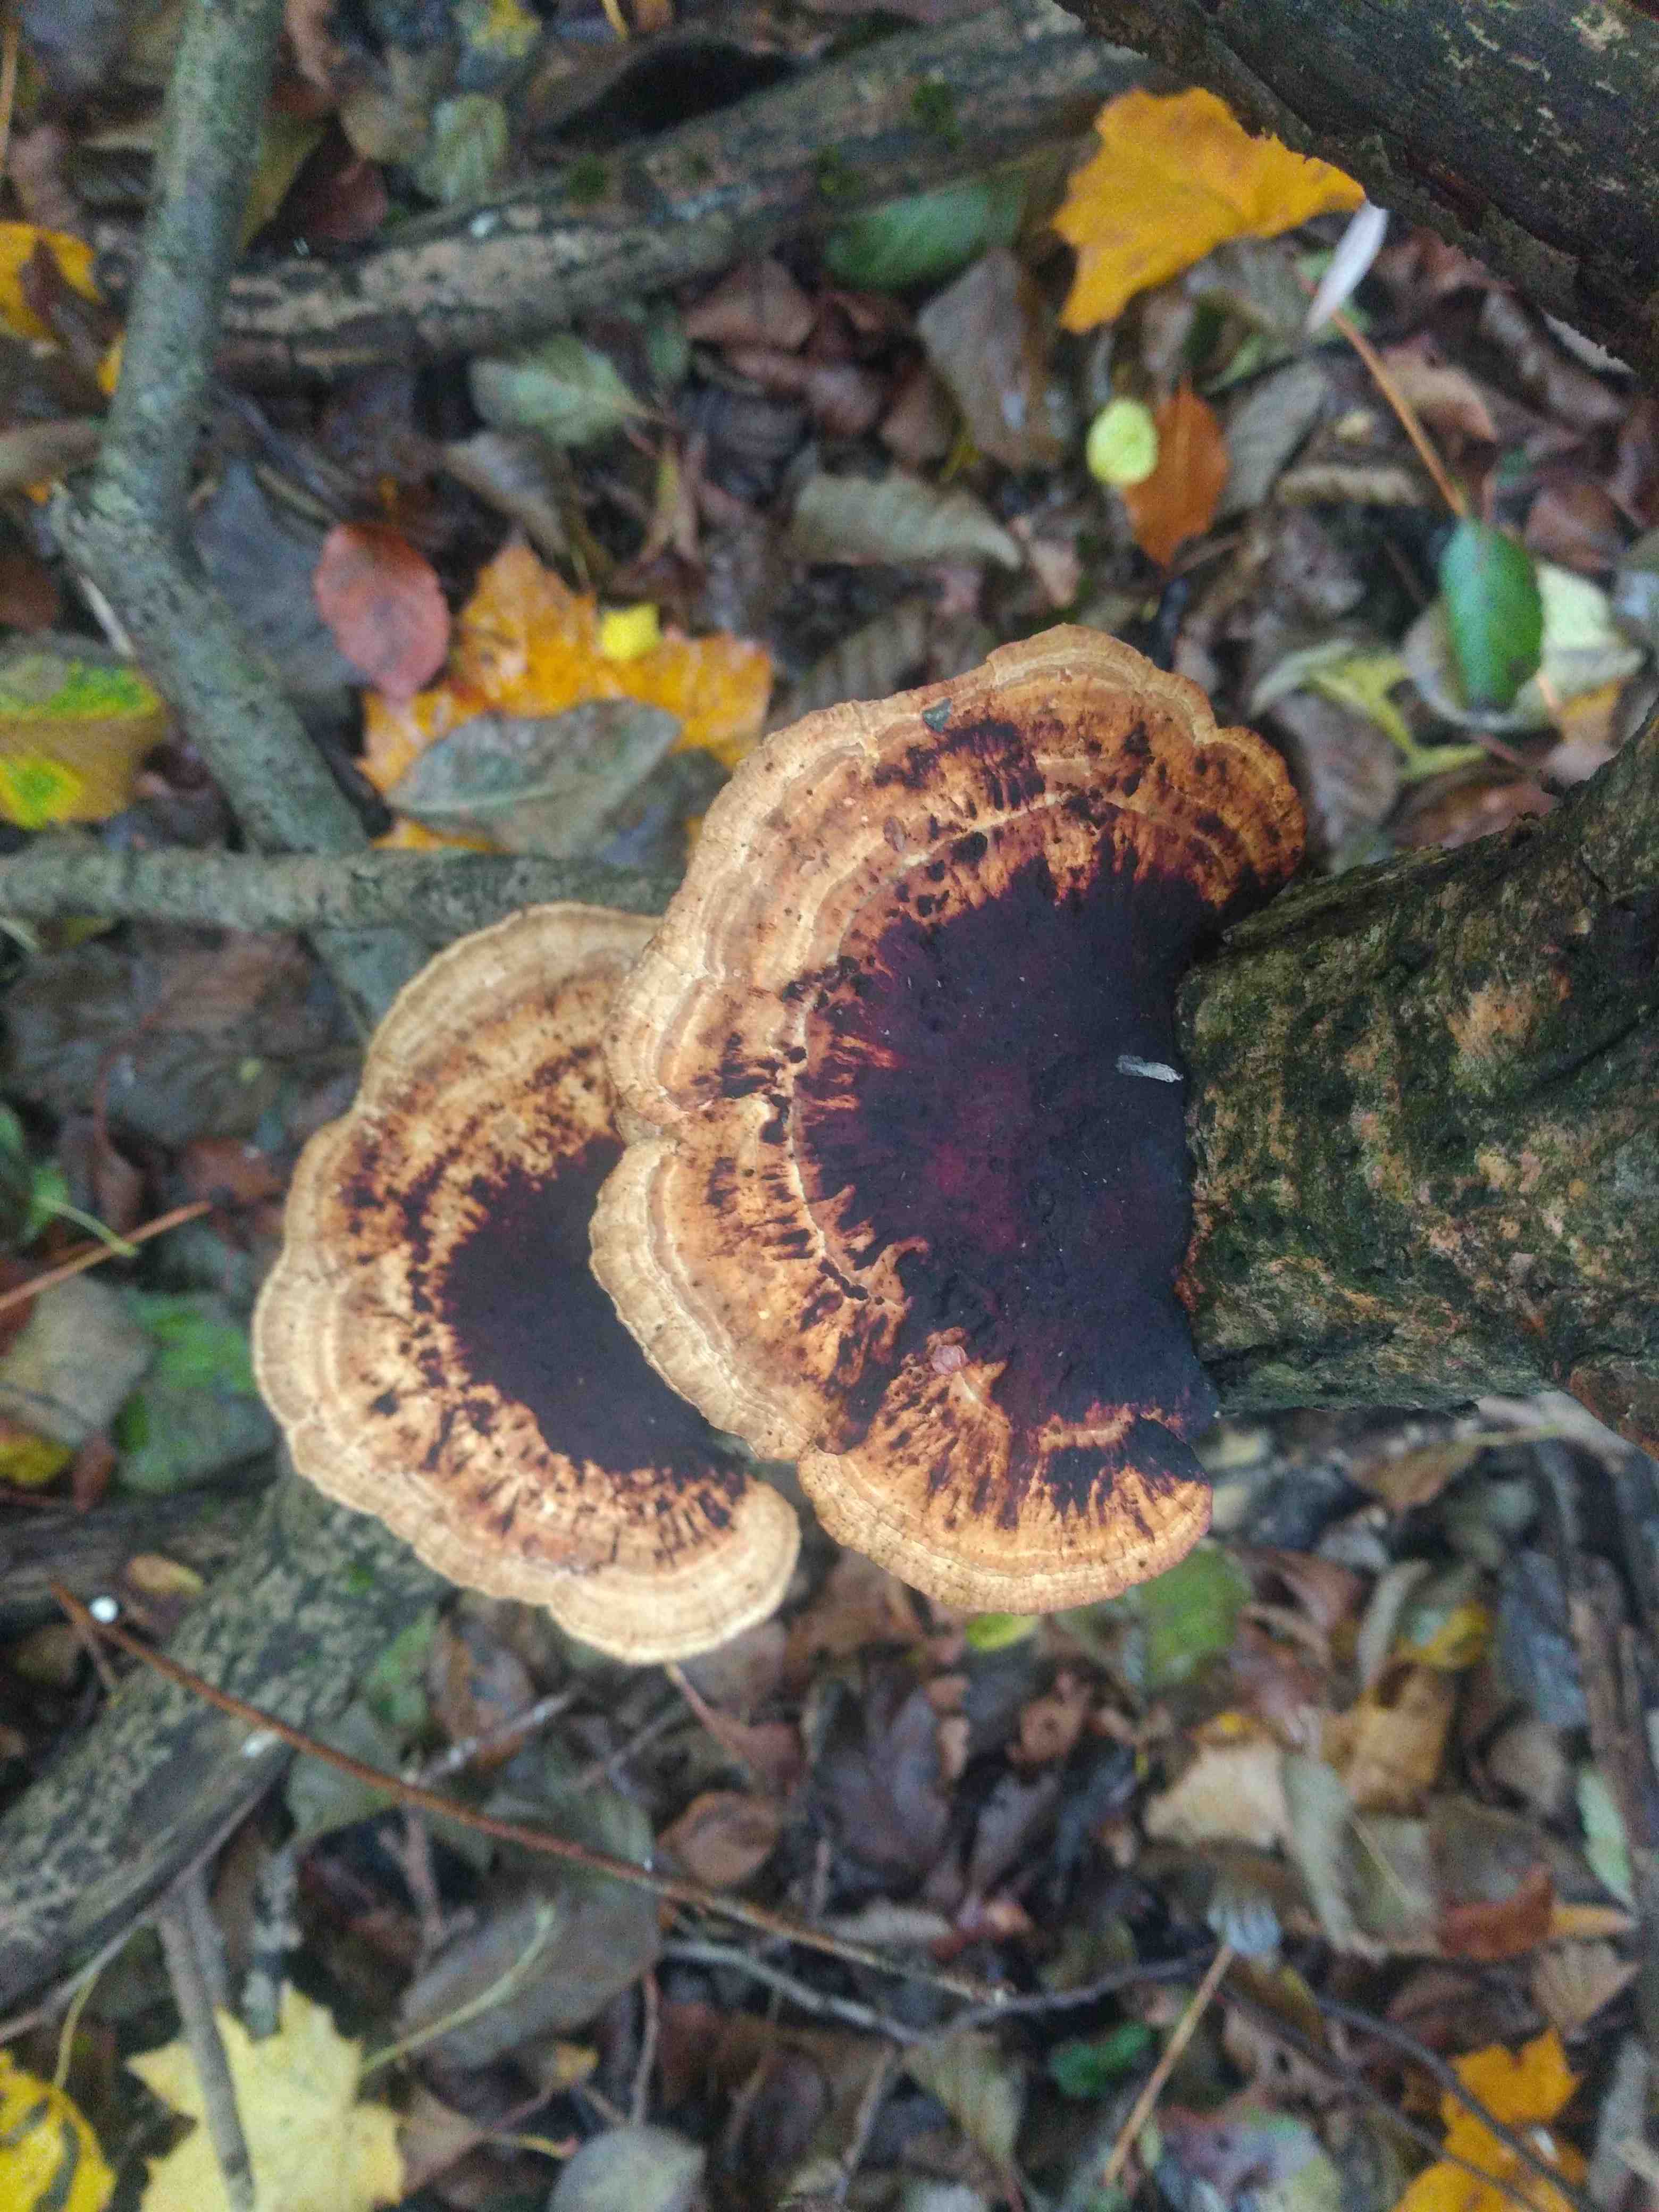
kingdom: Fungi
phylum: Basidiomycota
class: Agaricomycetes
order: Polyporales
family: Polyporaceae
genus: Daedaleopsis
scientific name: Daedaleopsis confragosa
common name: rødmende læderporesvamp
